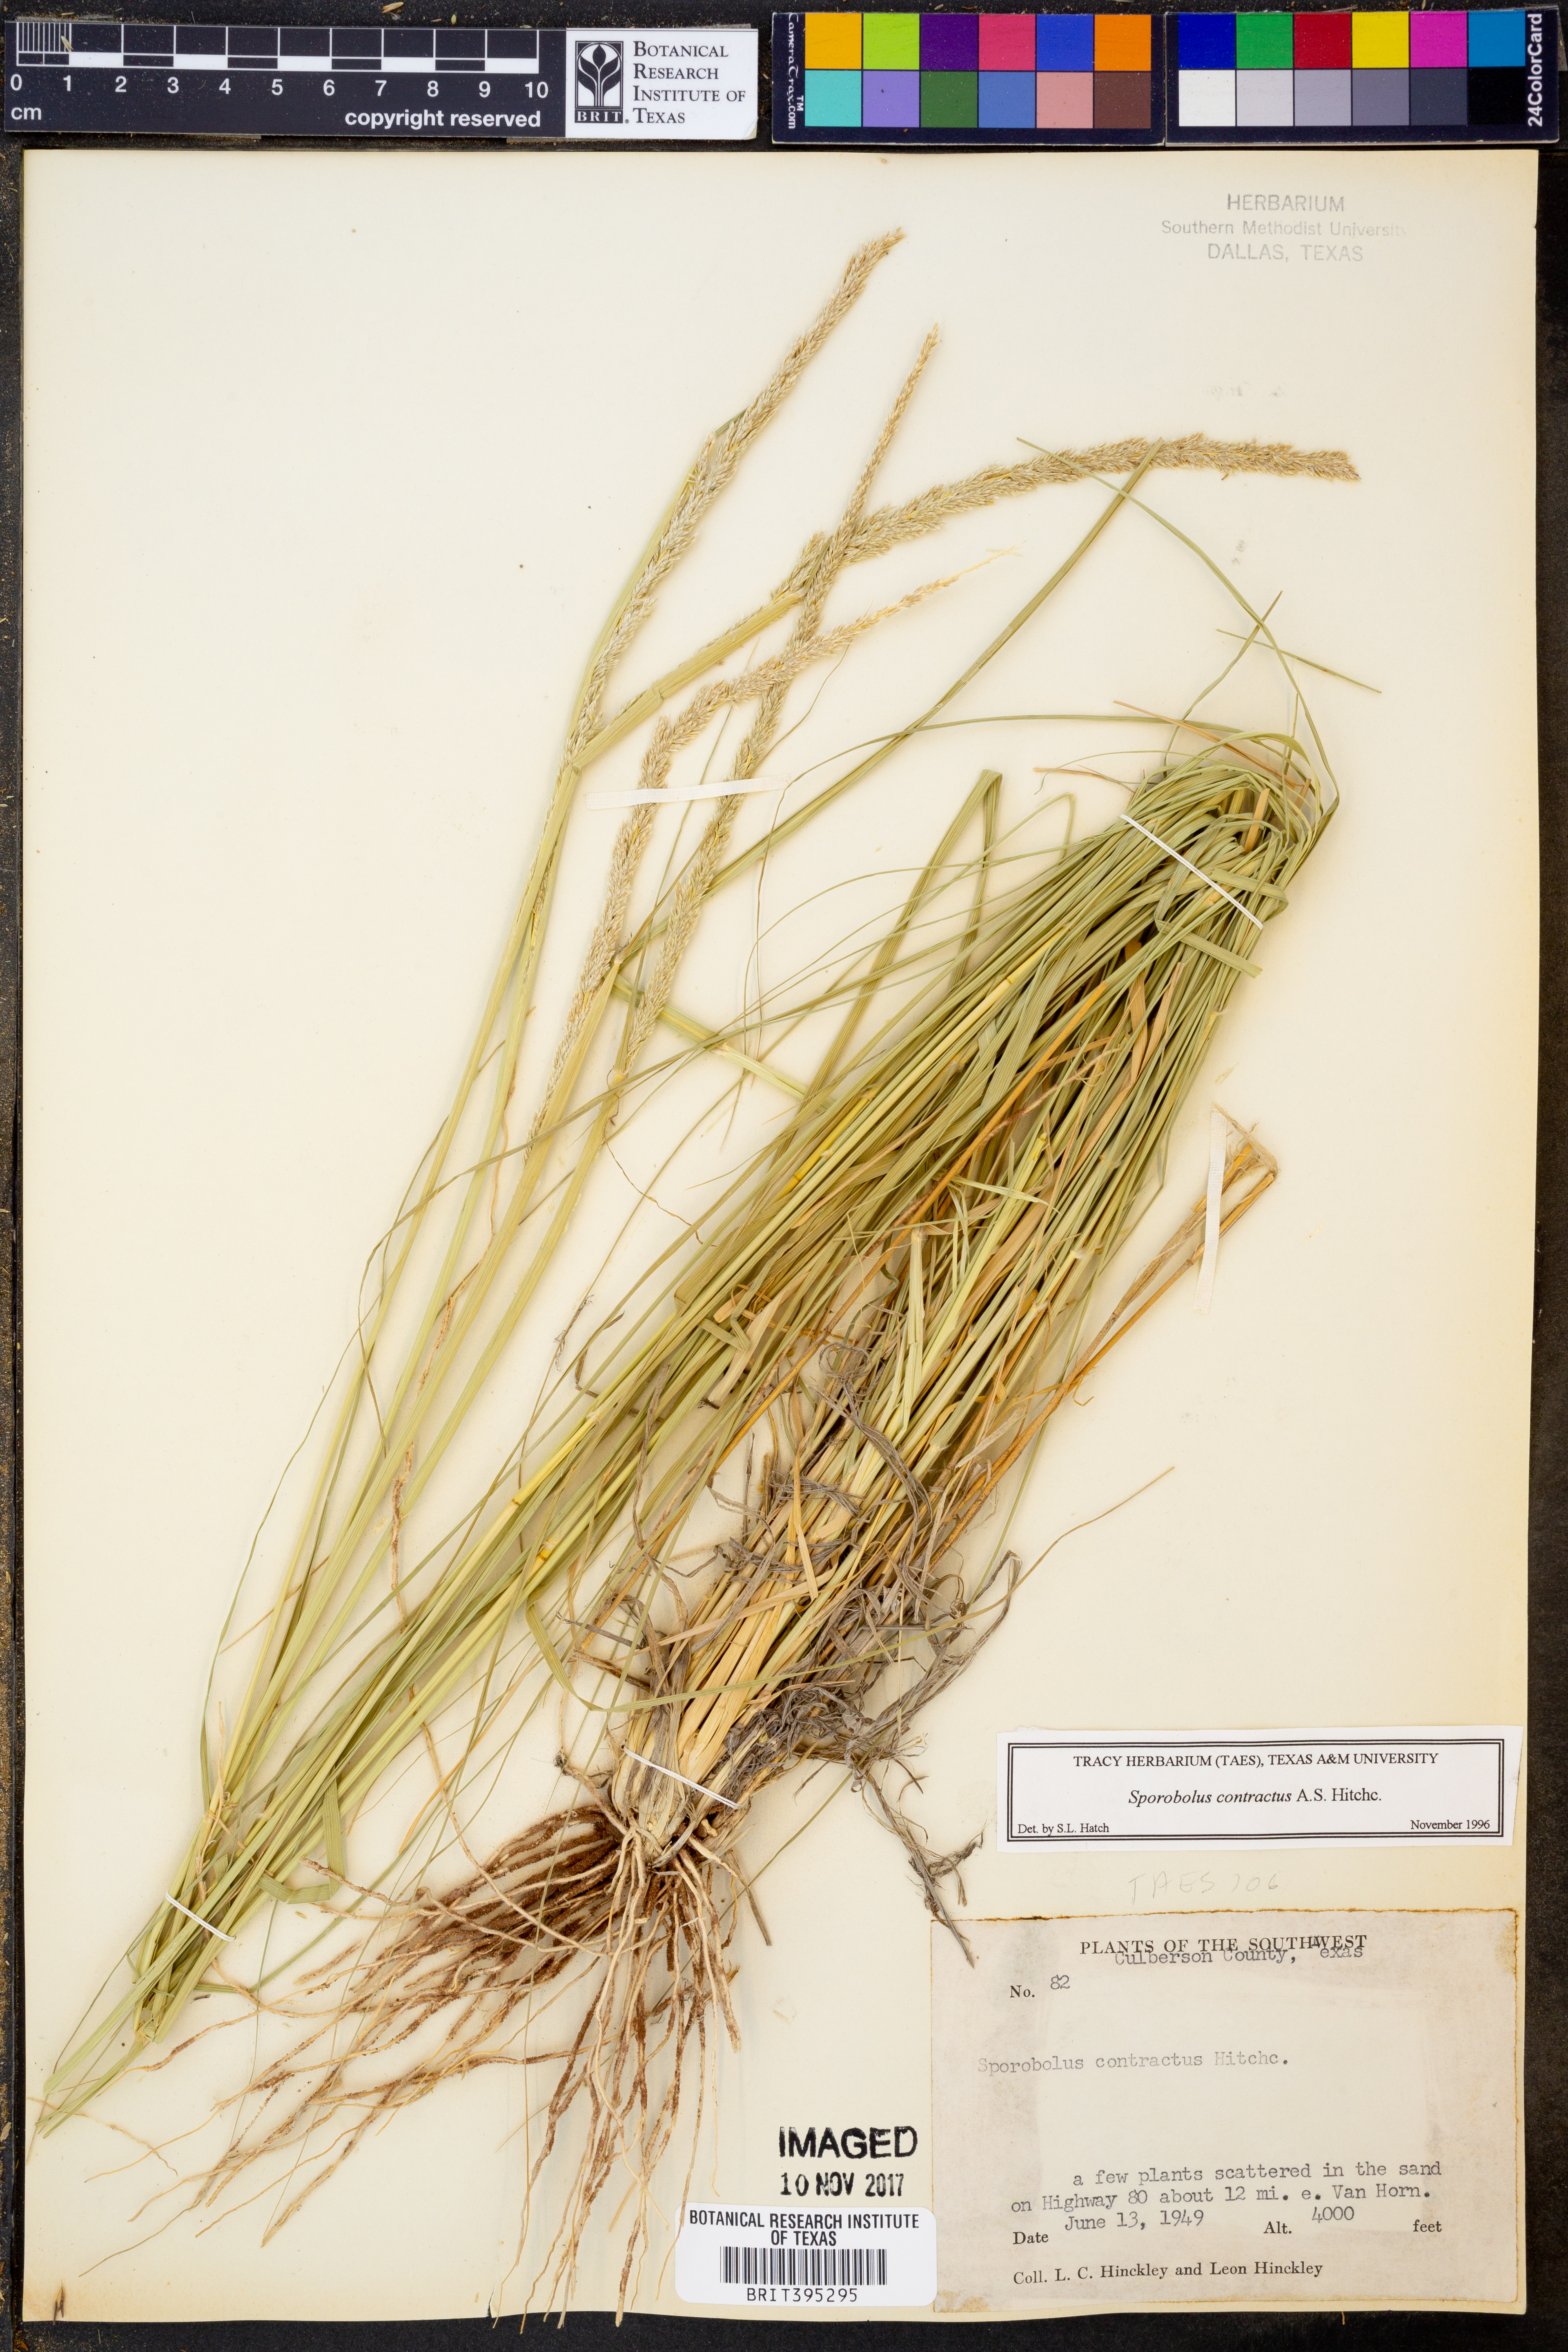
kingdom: Plantae
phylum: Tracheophyta
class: Liliopsida
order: Poales
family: Poaceae
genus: Sporobolus
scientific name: Sporobolus contractus
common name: Spike dropseed
